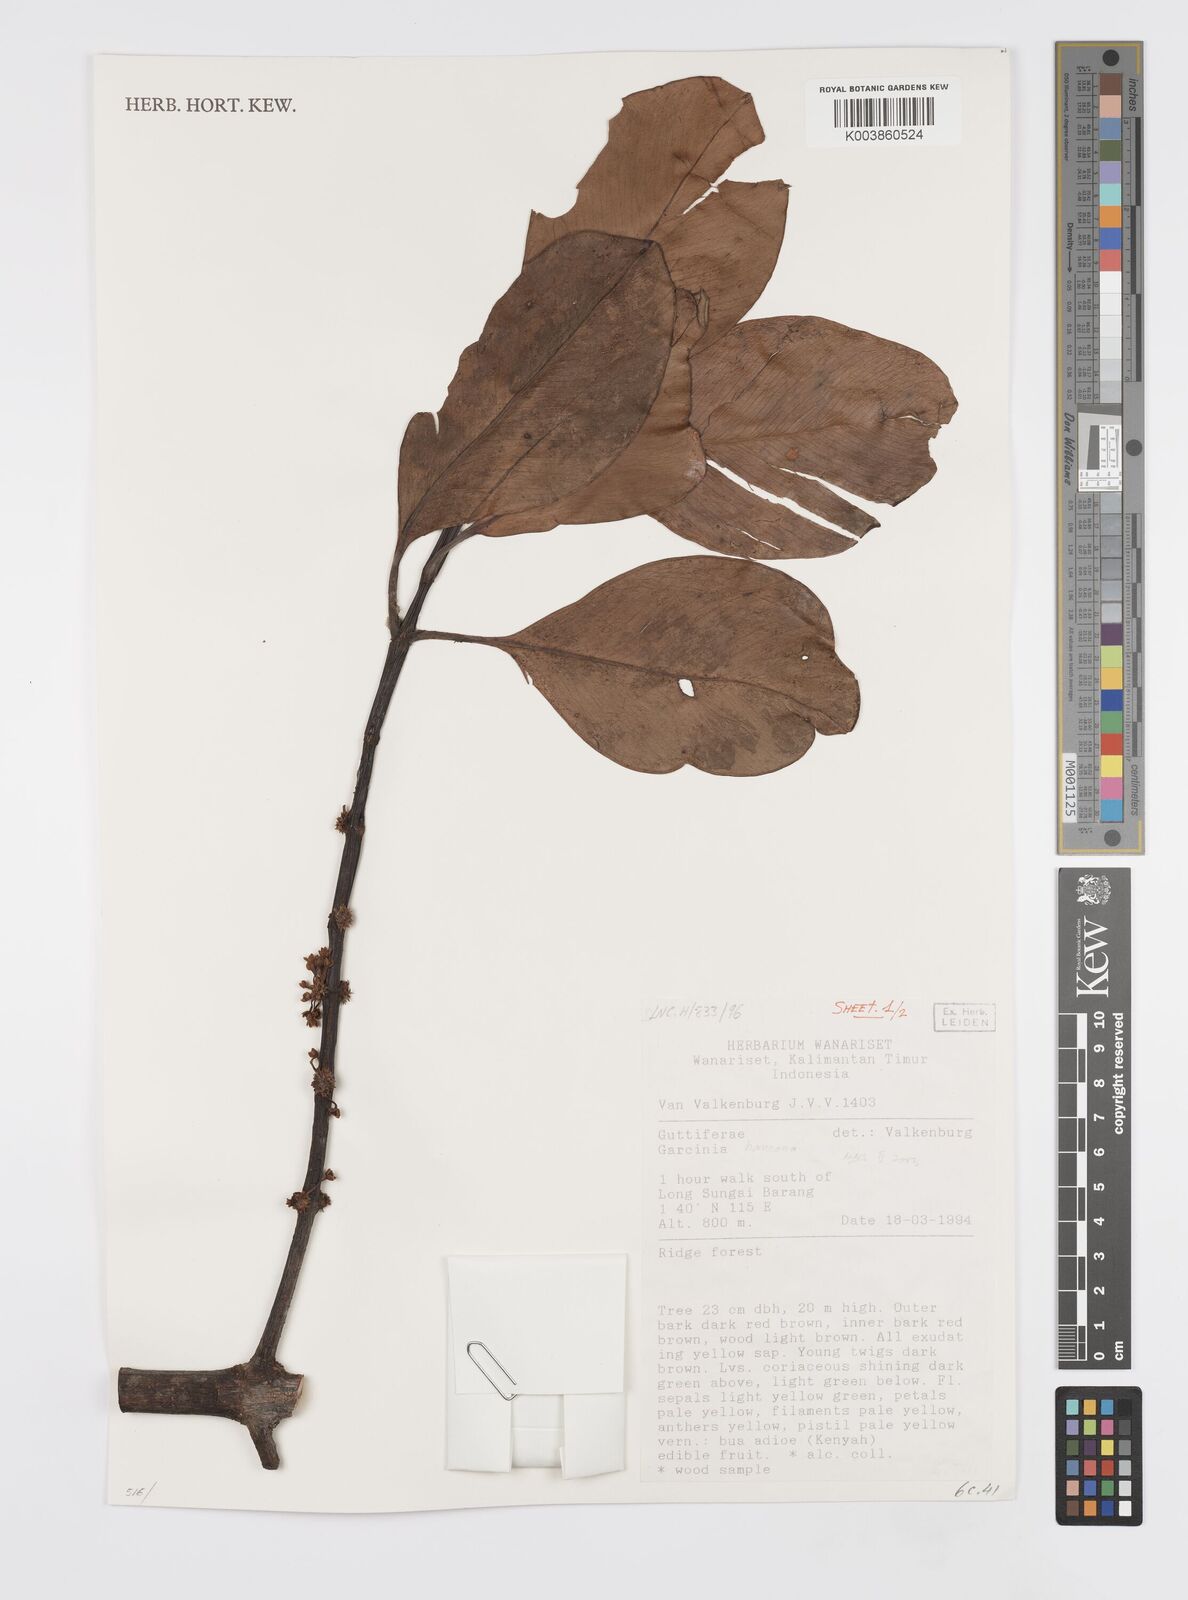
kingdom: Plantae
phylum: Tracheophyta
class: Magnoliopsida
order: Malpighiales
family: Clusiaceae
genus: Garcinia
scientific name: Garcinia bancana
